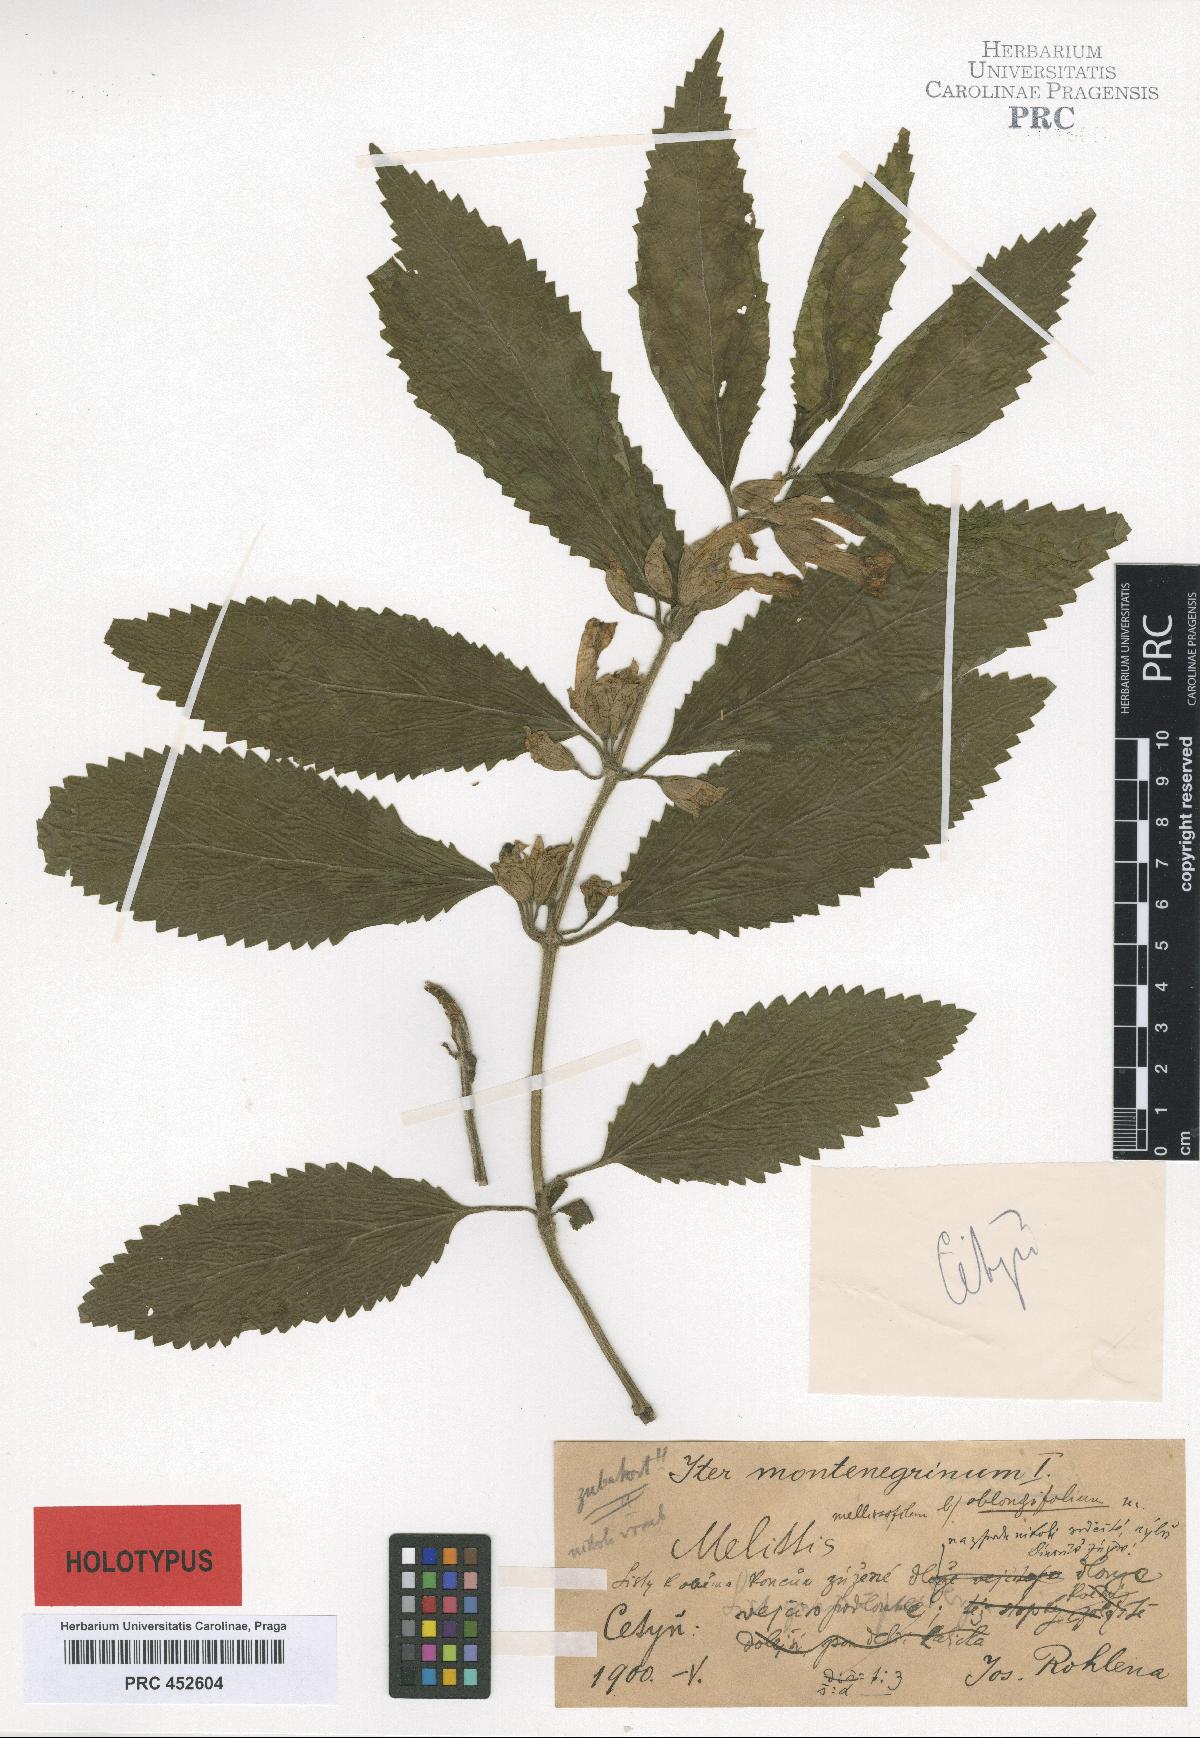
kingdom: Plantae
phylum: Tracheophyta
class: Magnoliopsida
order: Lamiales
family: Lamiaceae
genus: Melittis
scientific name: Melittis melissophyllum
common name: Bastard balm
